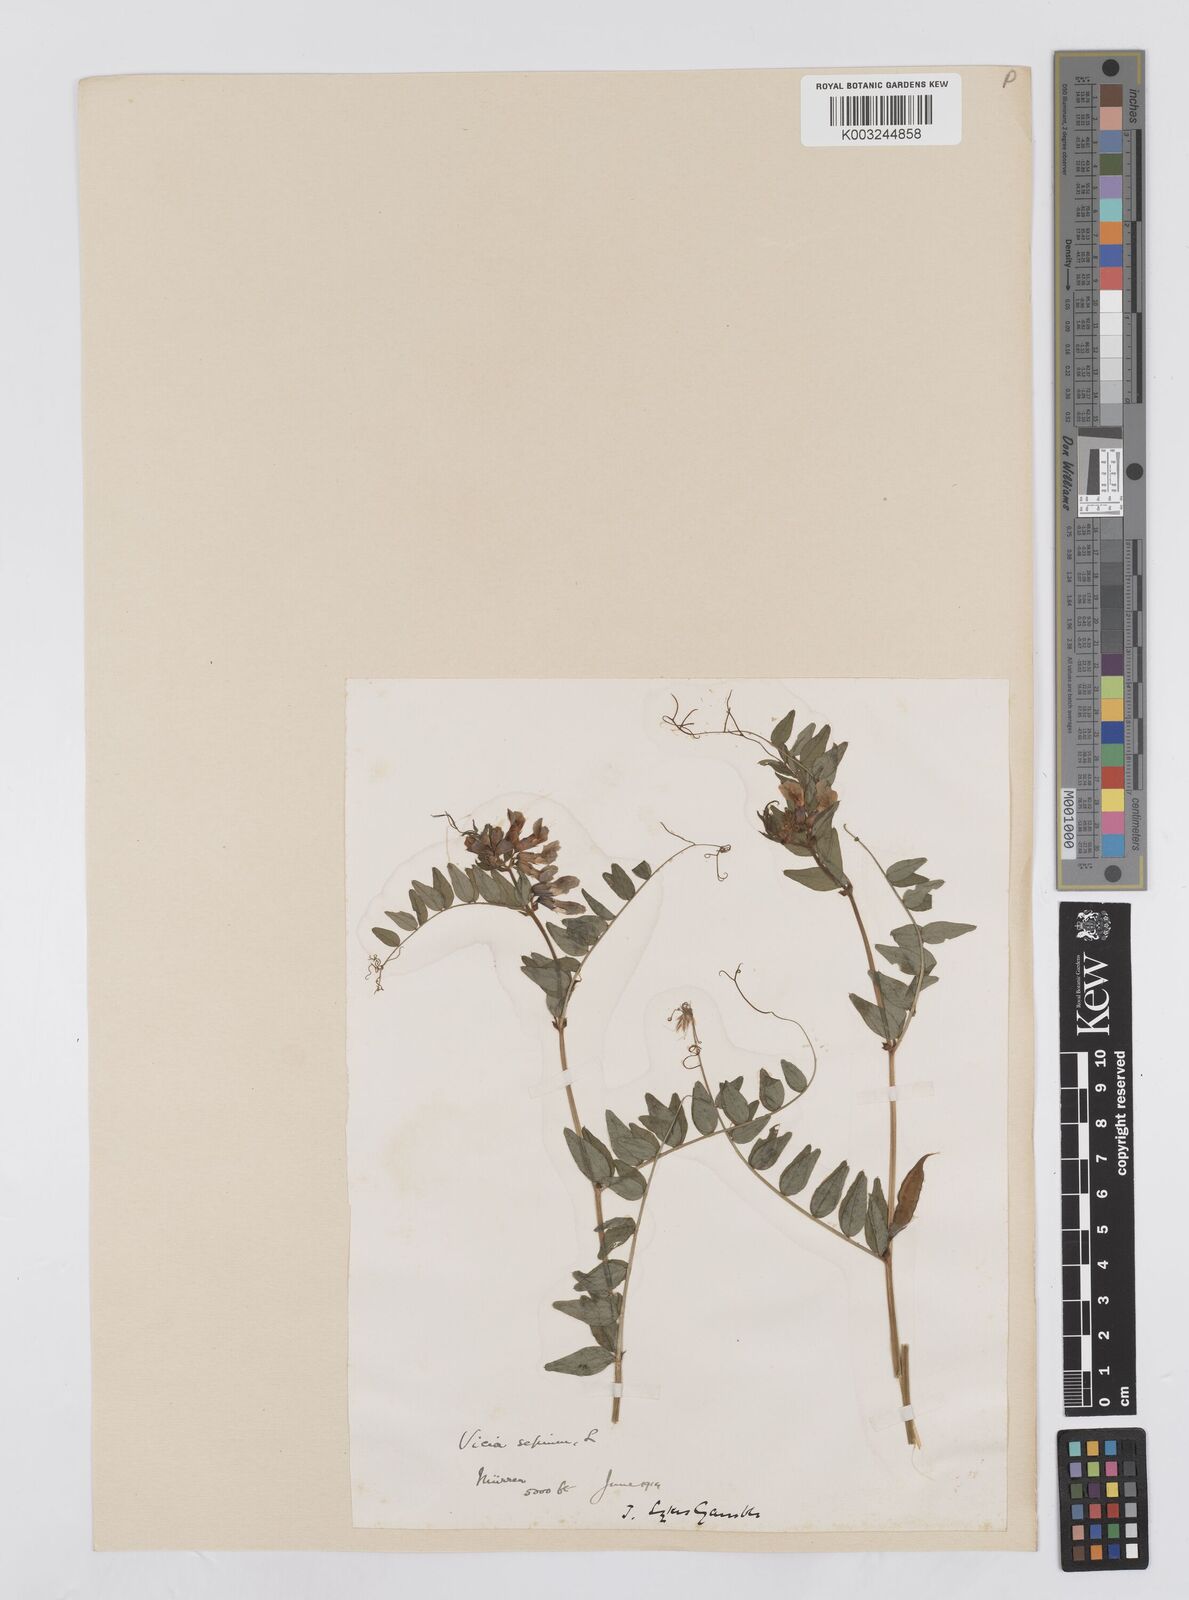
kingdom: Plantae
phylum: Tracheophyta
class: Magnoliopsida
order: Fabales
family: Fabaceae
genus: Vicia
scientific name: Vicia sepium
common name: Bush vetch
